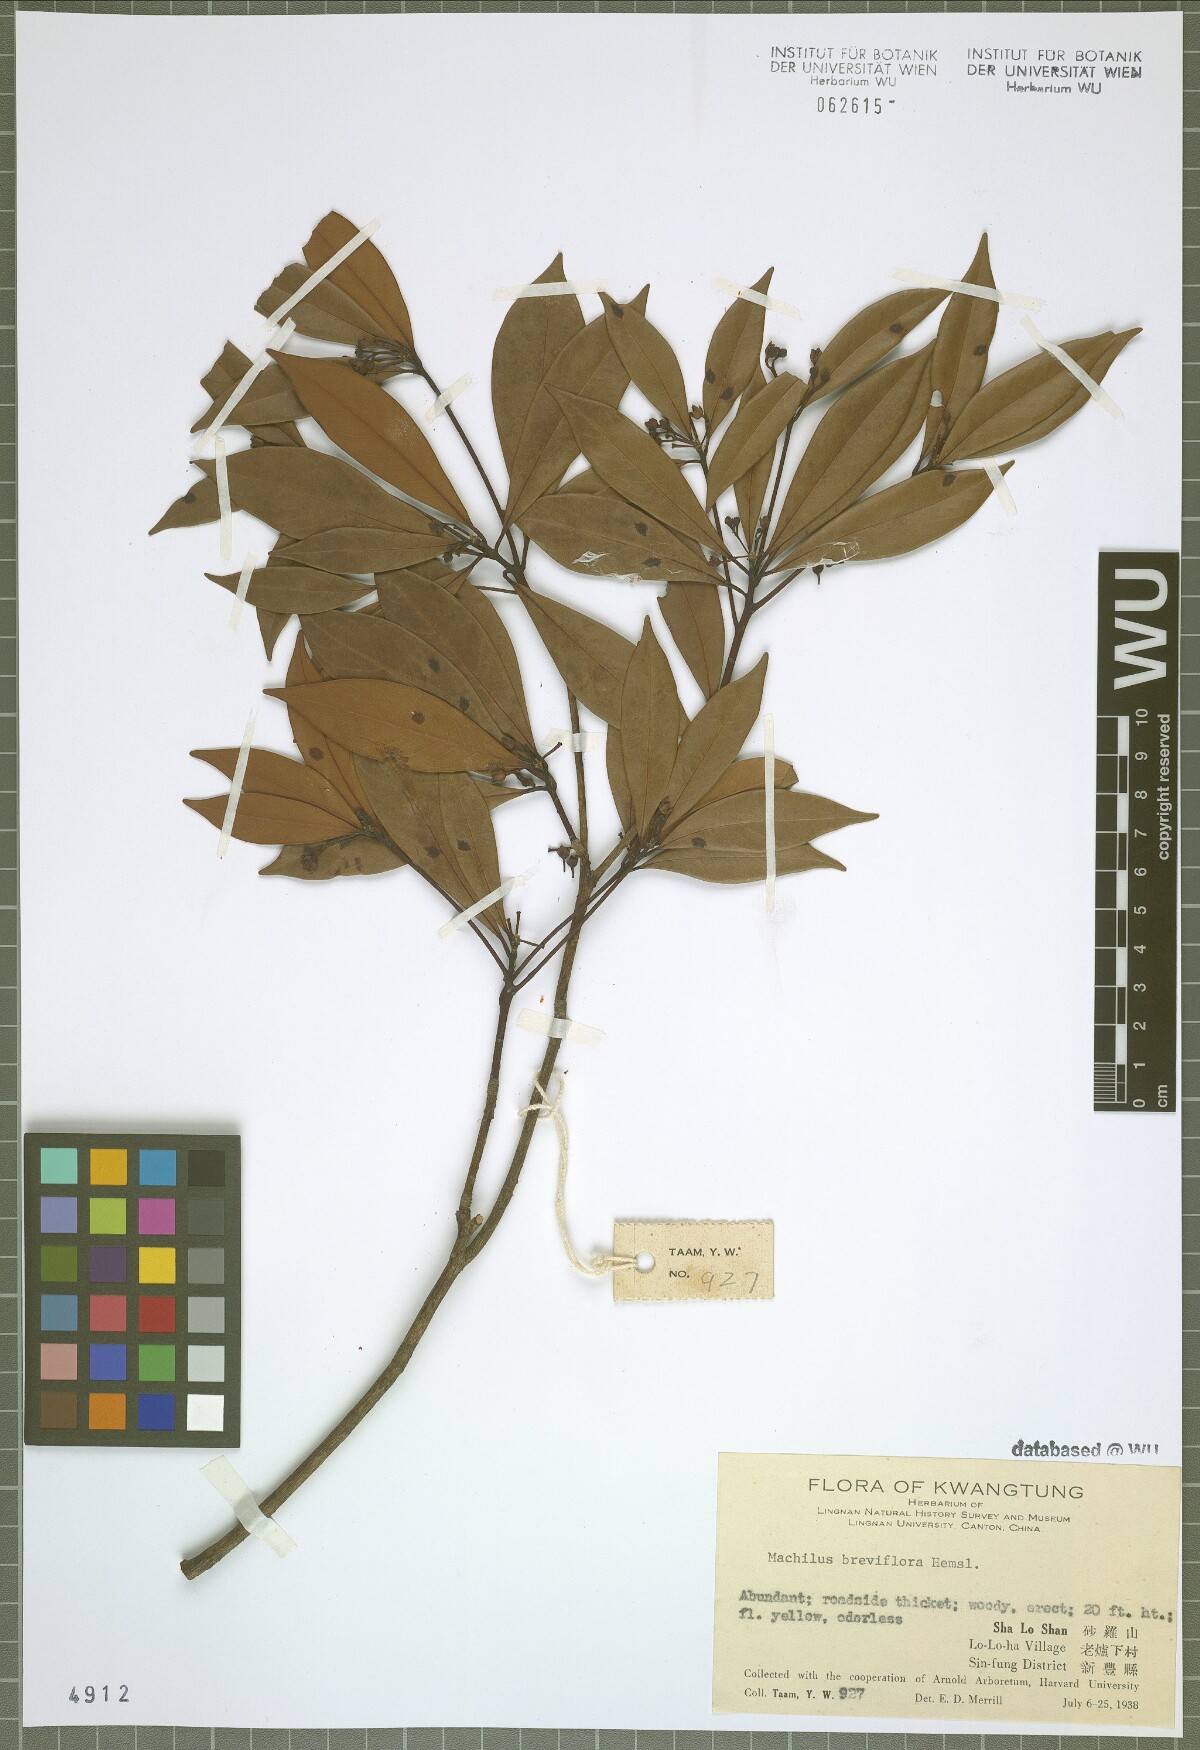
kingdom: Plantae
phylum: Tracheophyta
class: Magnoliopsida
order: Laurales
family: Lauraceae
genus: Machilus
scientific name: Machilus breviflora
